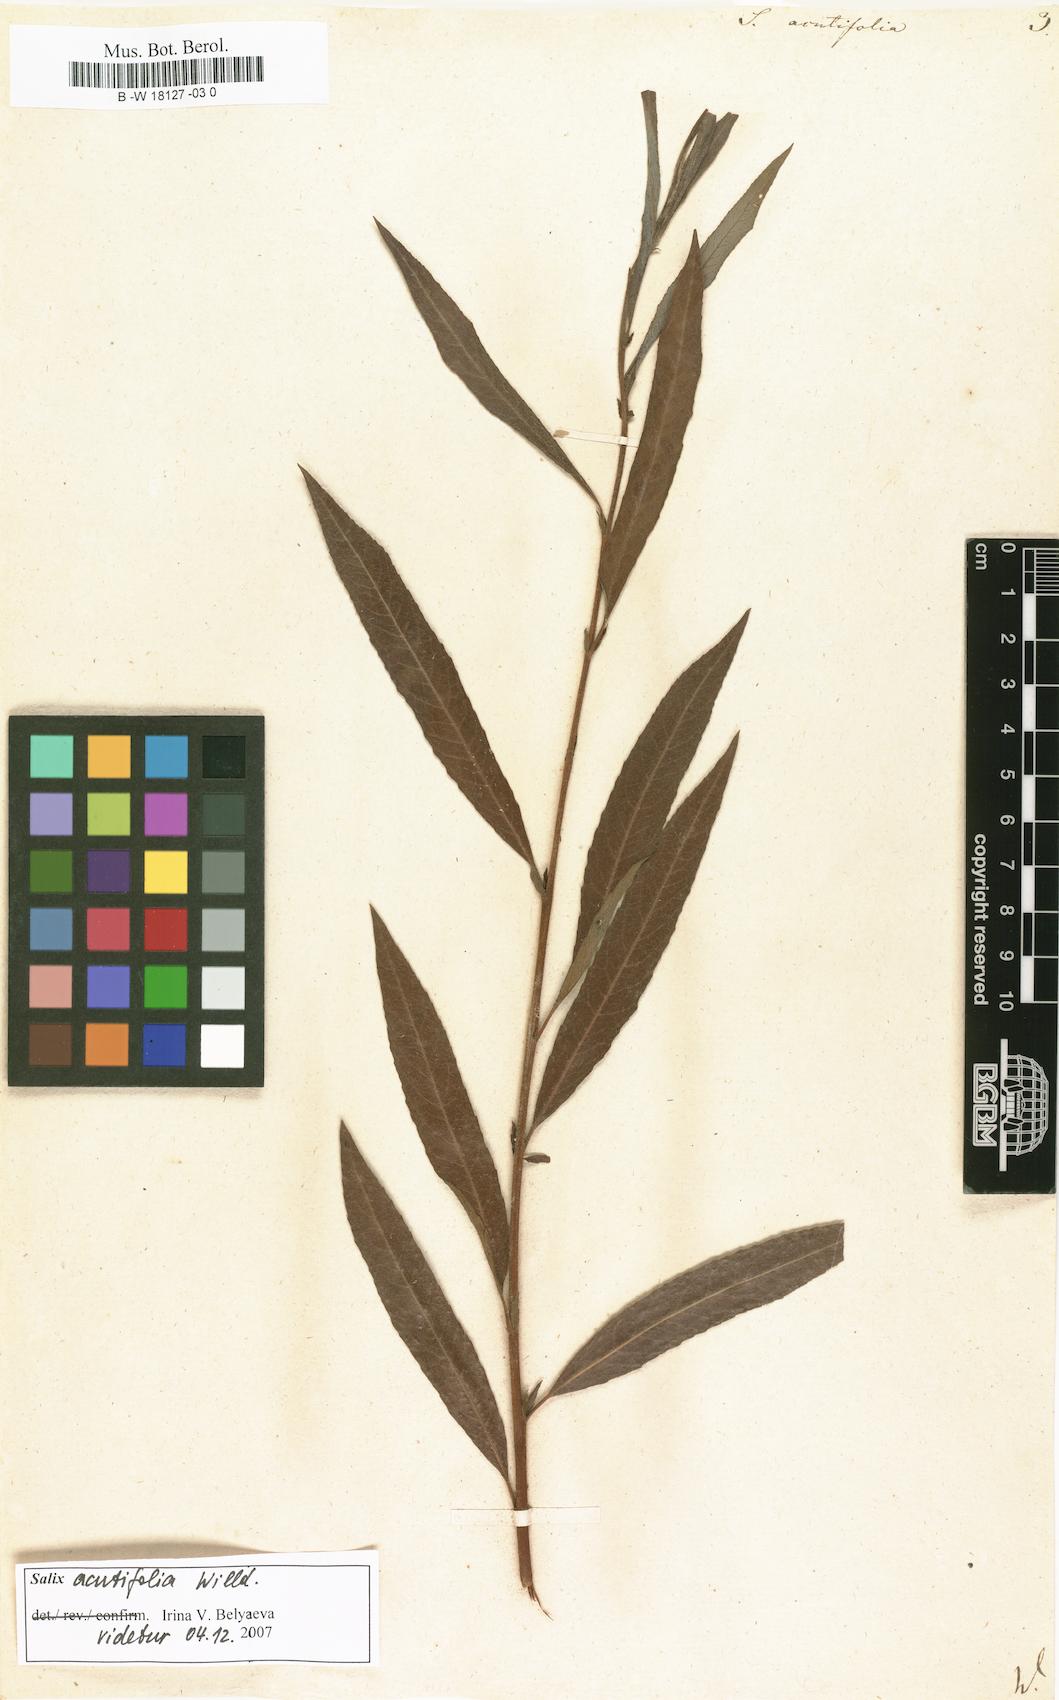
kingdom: Plantae
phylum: Tracheophyta
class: Magnoliopsida
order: Malpighiales
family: Salicaceae
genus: Salix
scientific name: Salix acutifolia
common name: Siberian violet-willow
